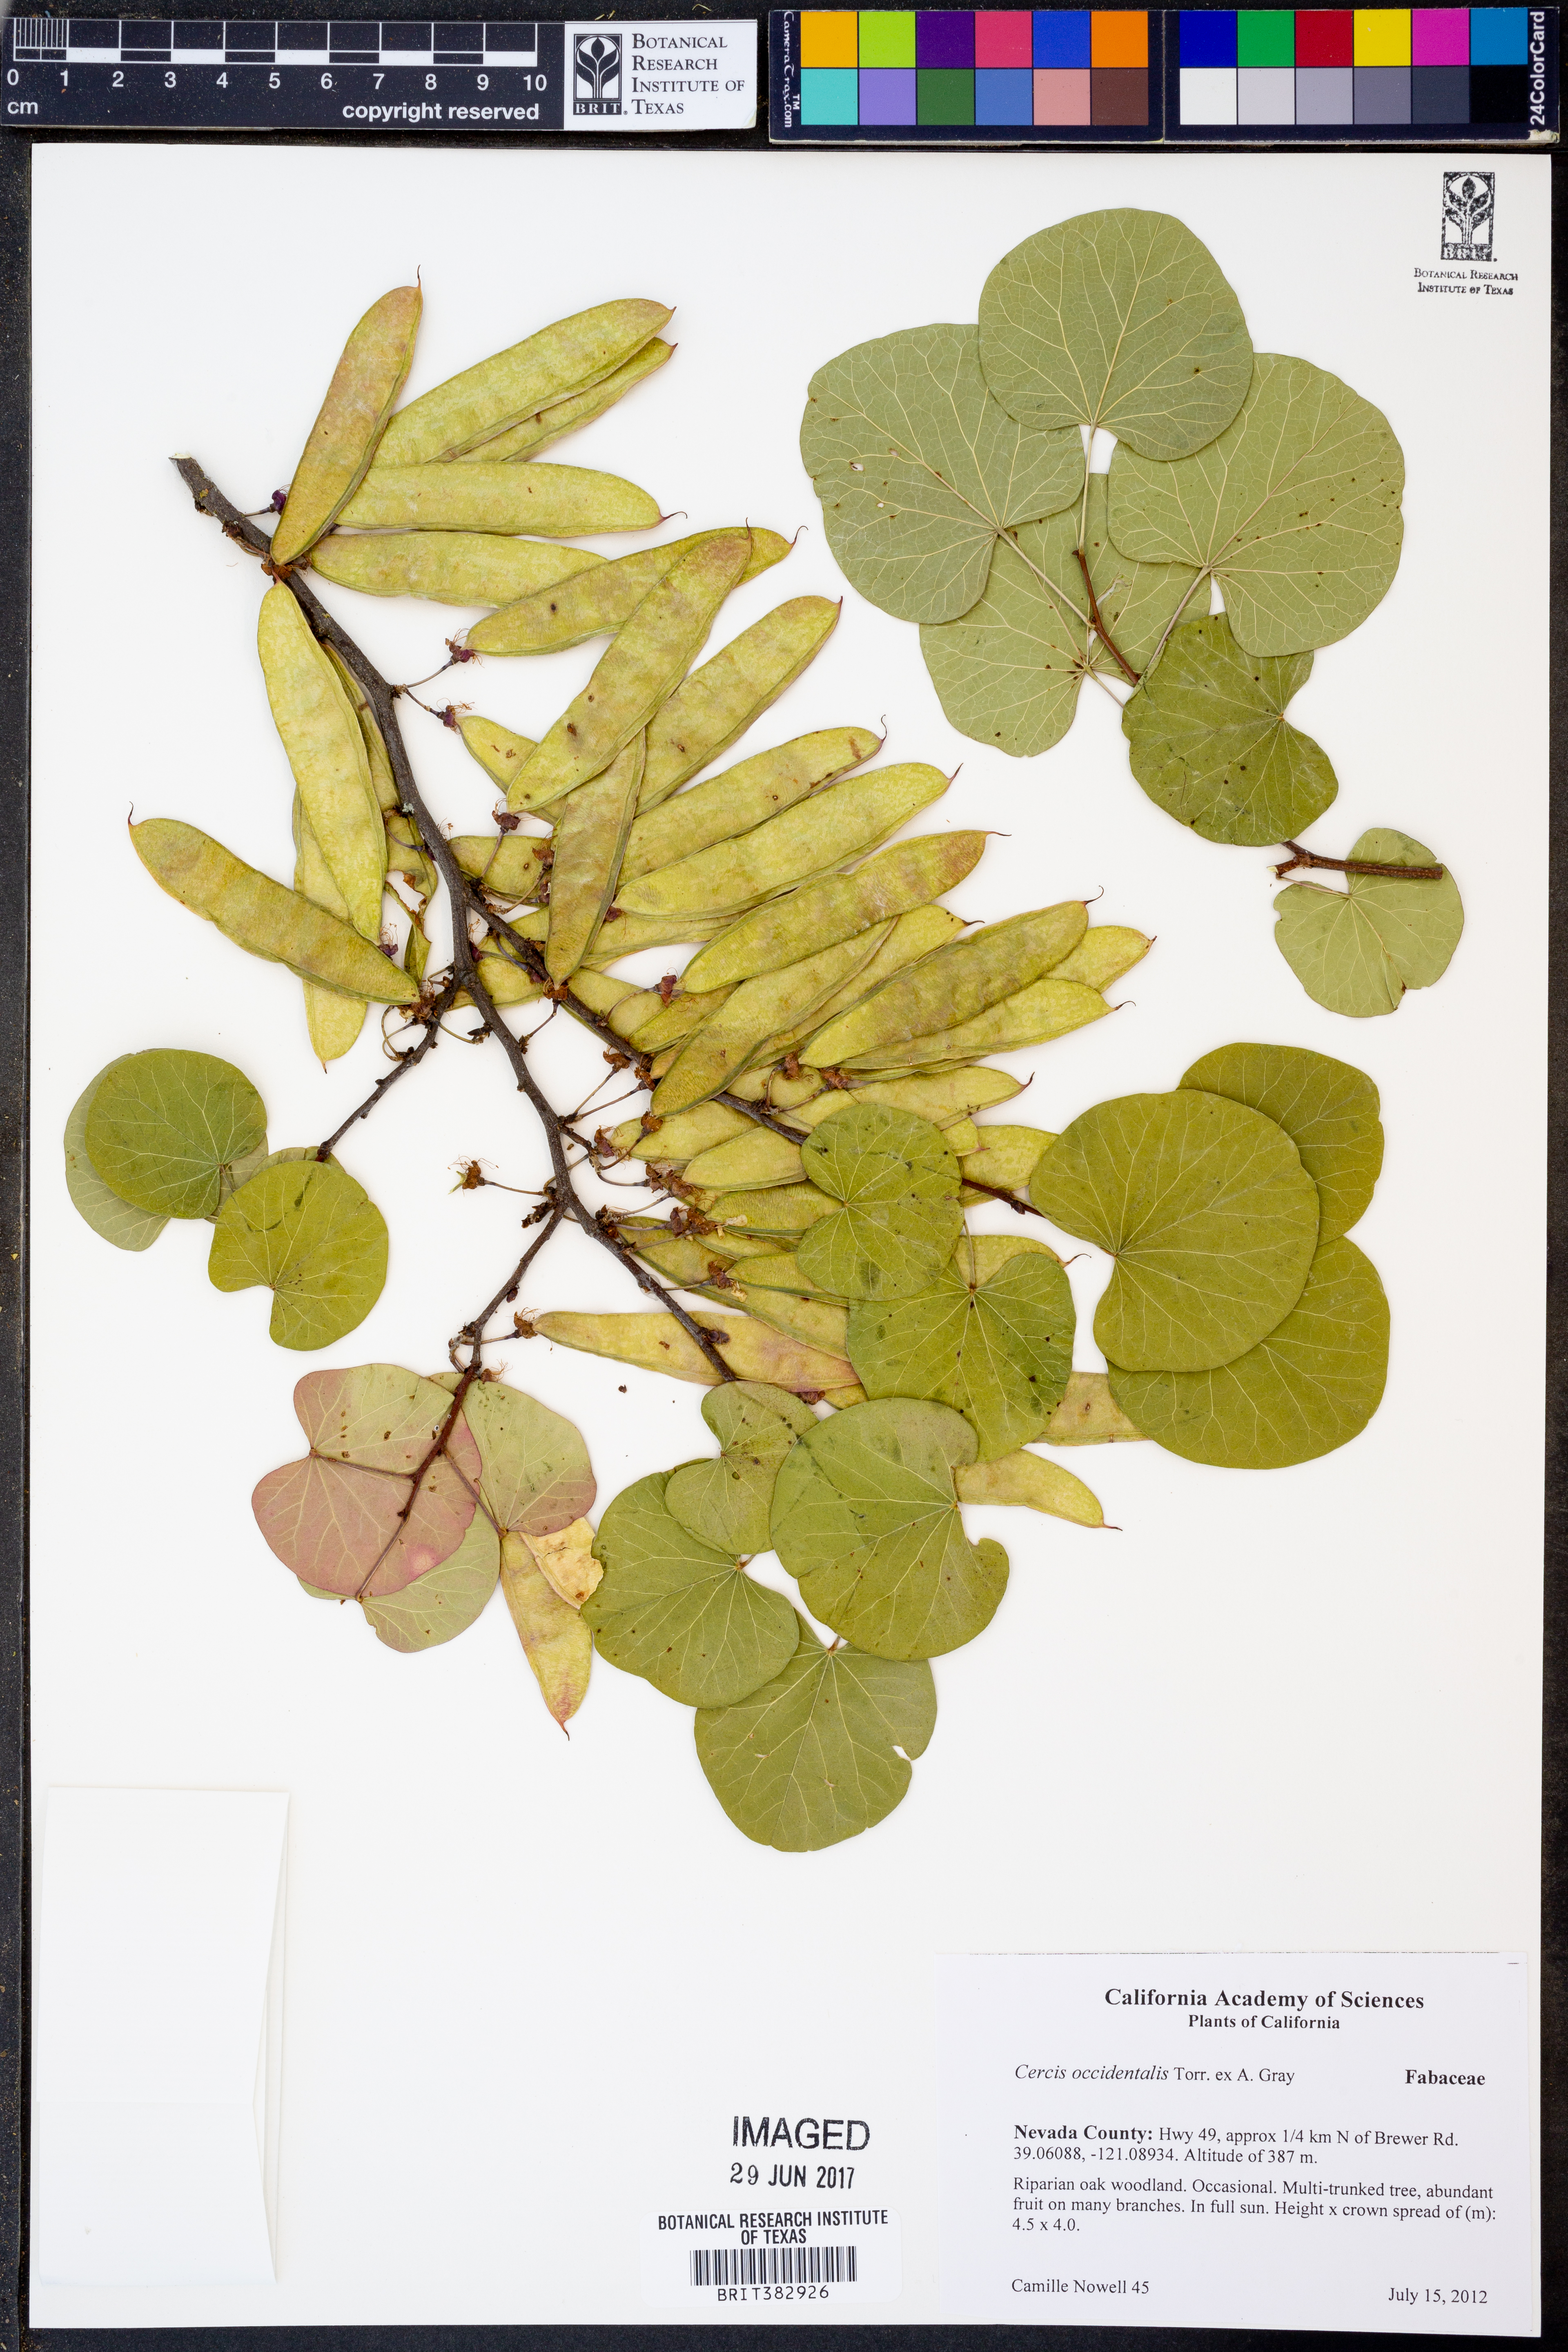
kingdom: Plantae
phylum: Tracheophyta
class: Magnoliopsida
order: Fabales
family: Fabaceae
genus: Cercis
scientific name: Cercis occidentalis
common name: California redbud
